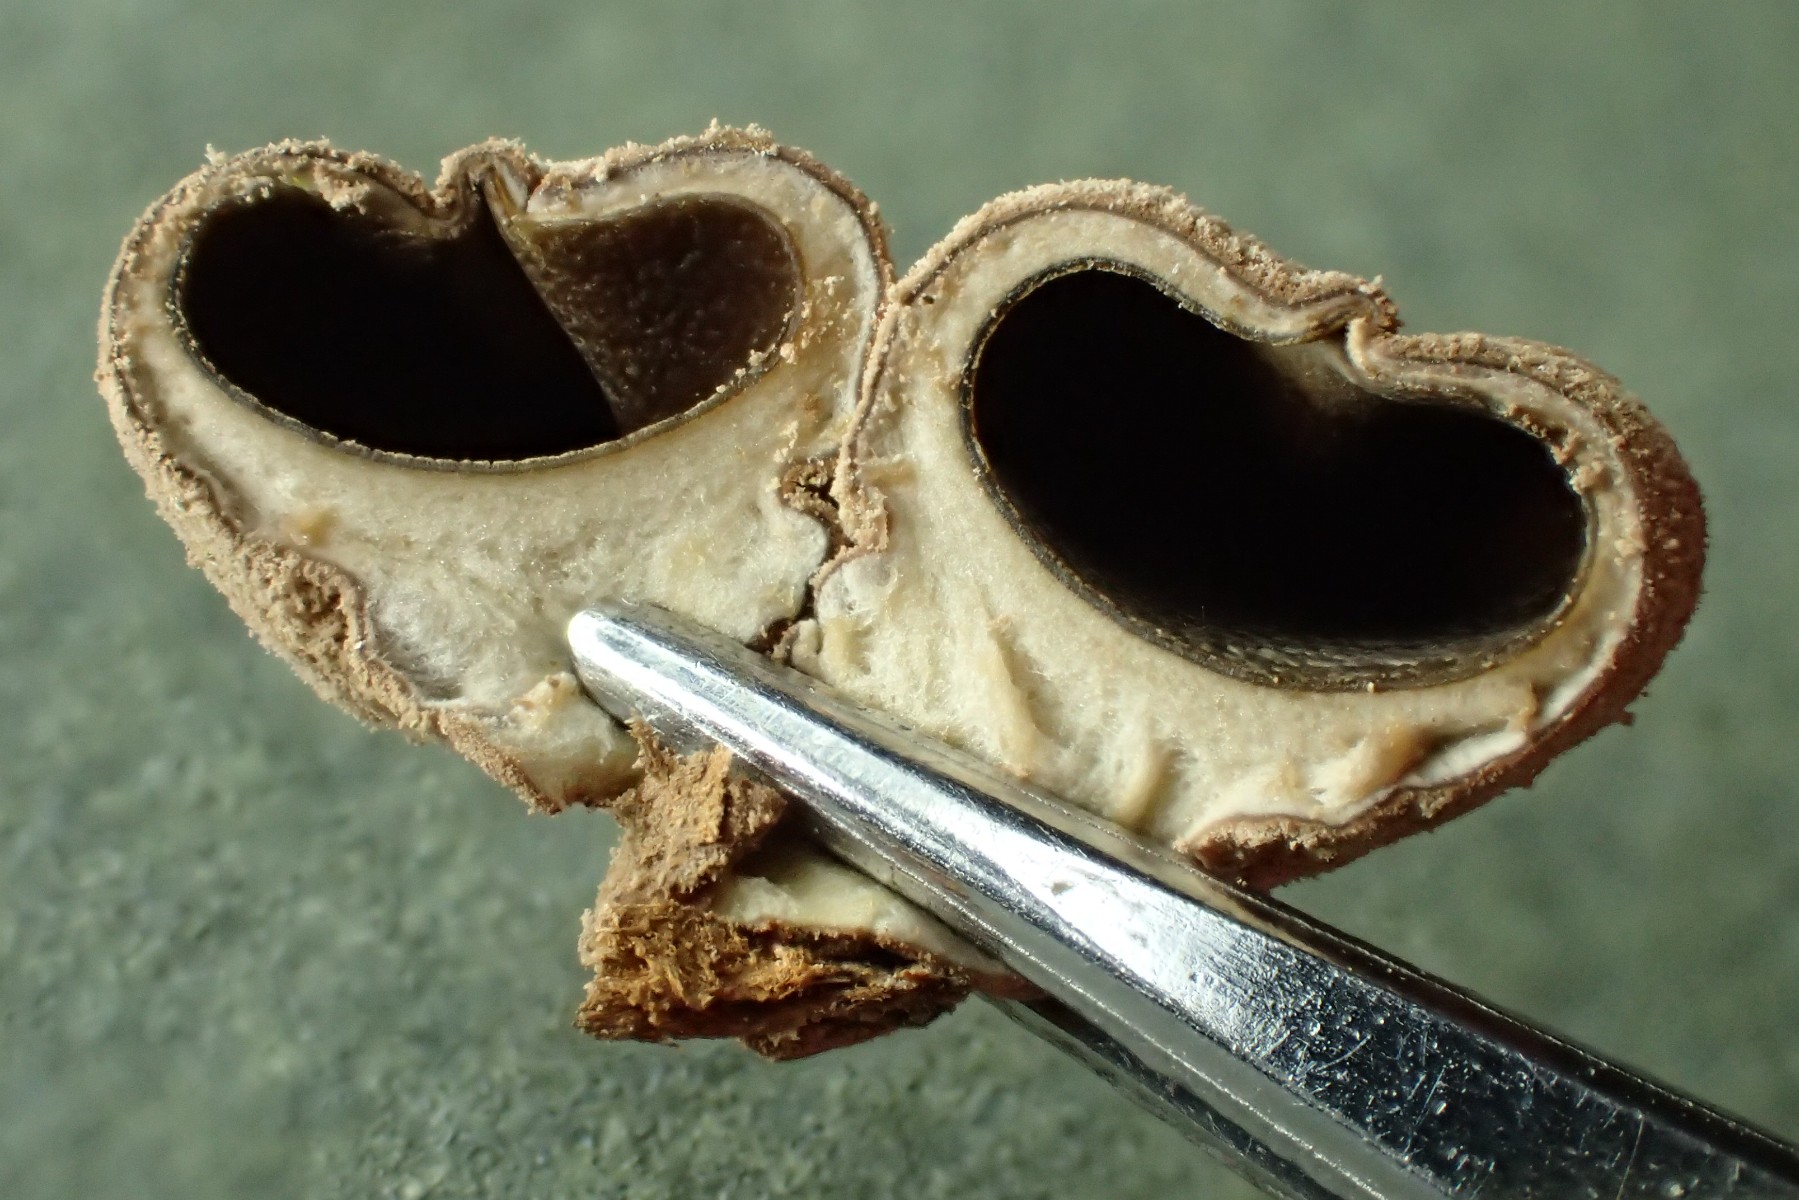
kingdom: Fungi
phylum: Ascomycota
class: Leotiomycetes
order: Helotiales
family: Cenangiaceae
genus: Encoelia
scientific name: Encoelia furfuracea
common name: hassel-læderskive
